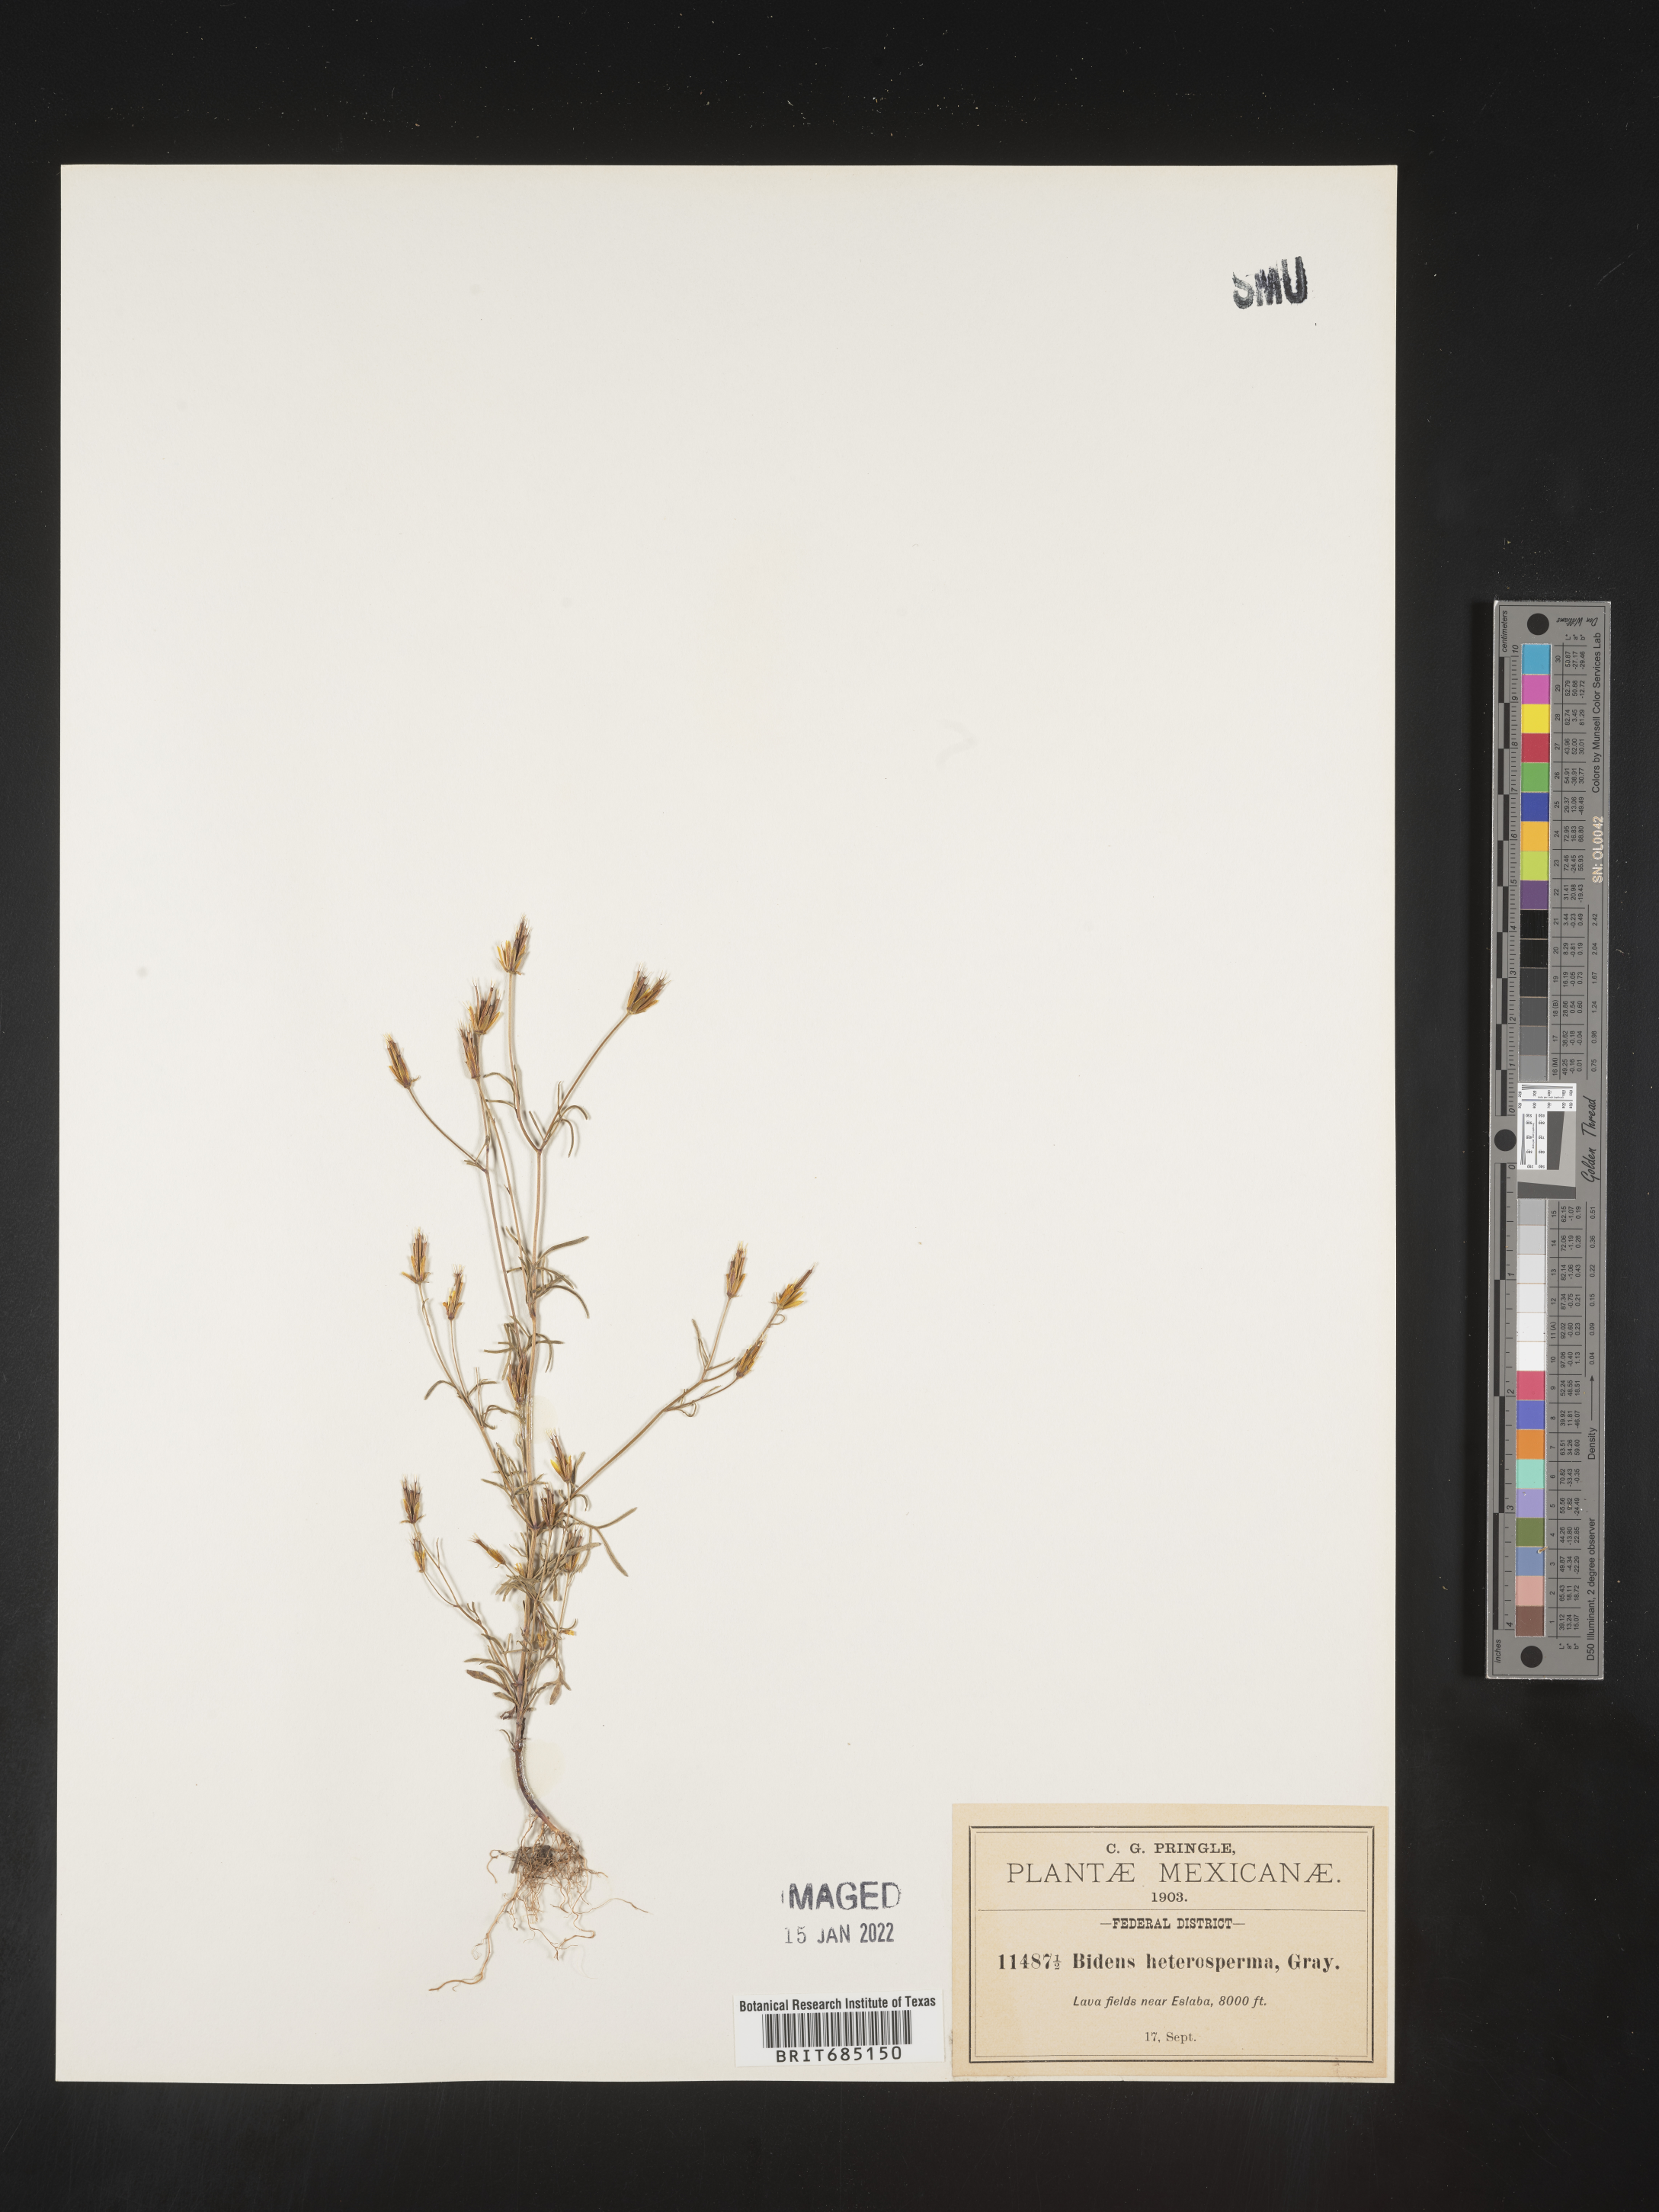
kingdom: Plantae
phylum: Tracheophyta
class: Magnoliopsida
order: Asterales
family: Asteraceae
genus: Bidens
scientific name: Bidens
